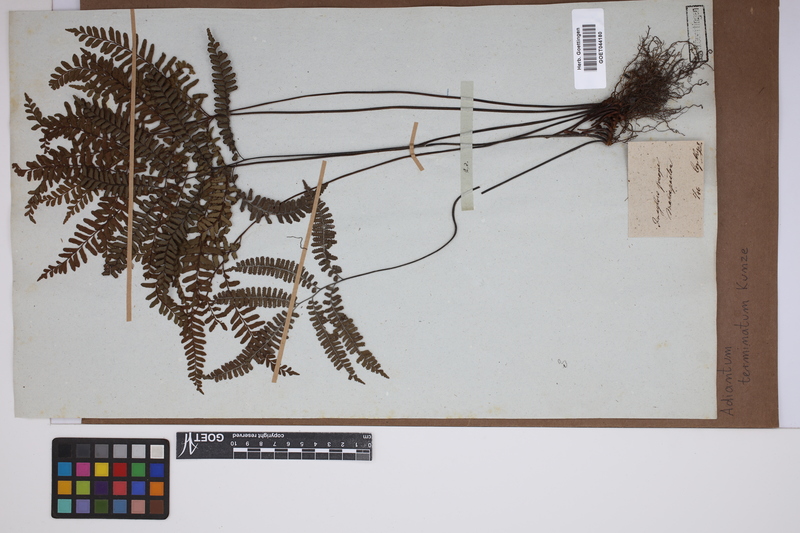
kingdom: Plantae
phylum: Tracheophyta
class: Polypodiopsida
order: Polypodiales
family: Pteridaceae
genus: Adiantum
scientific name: Adiantum terminatum
